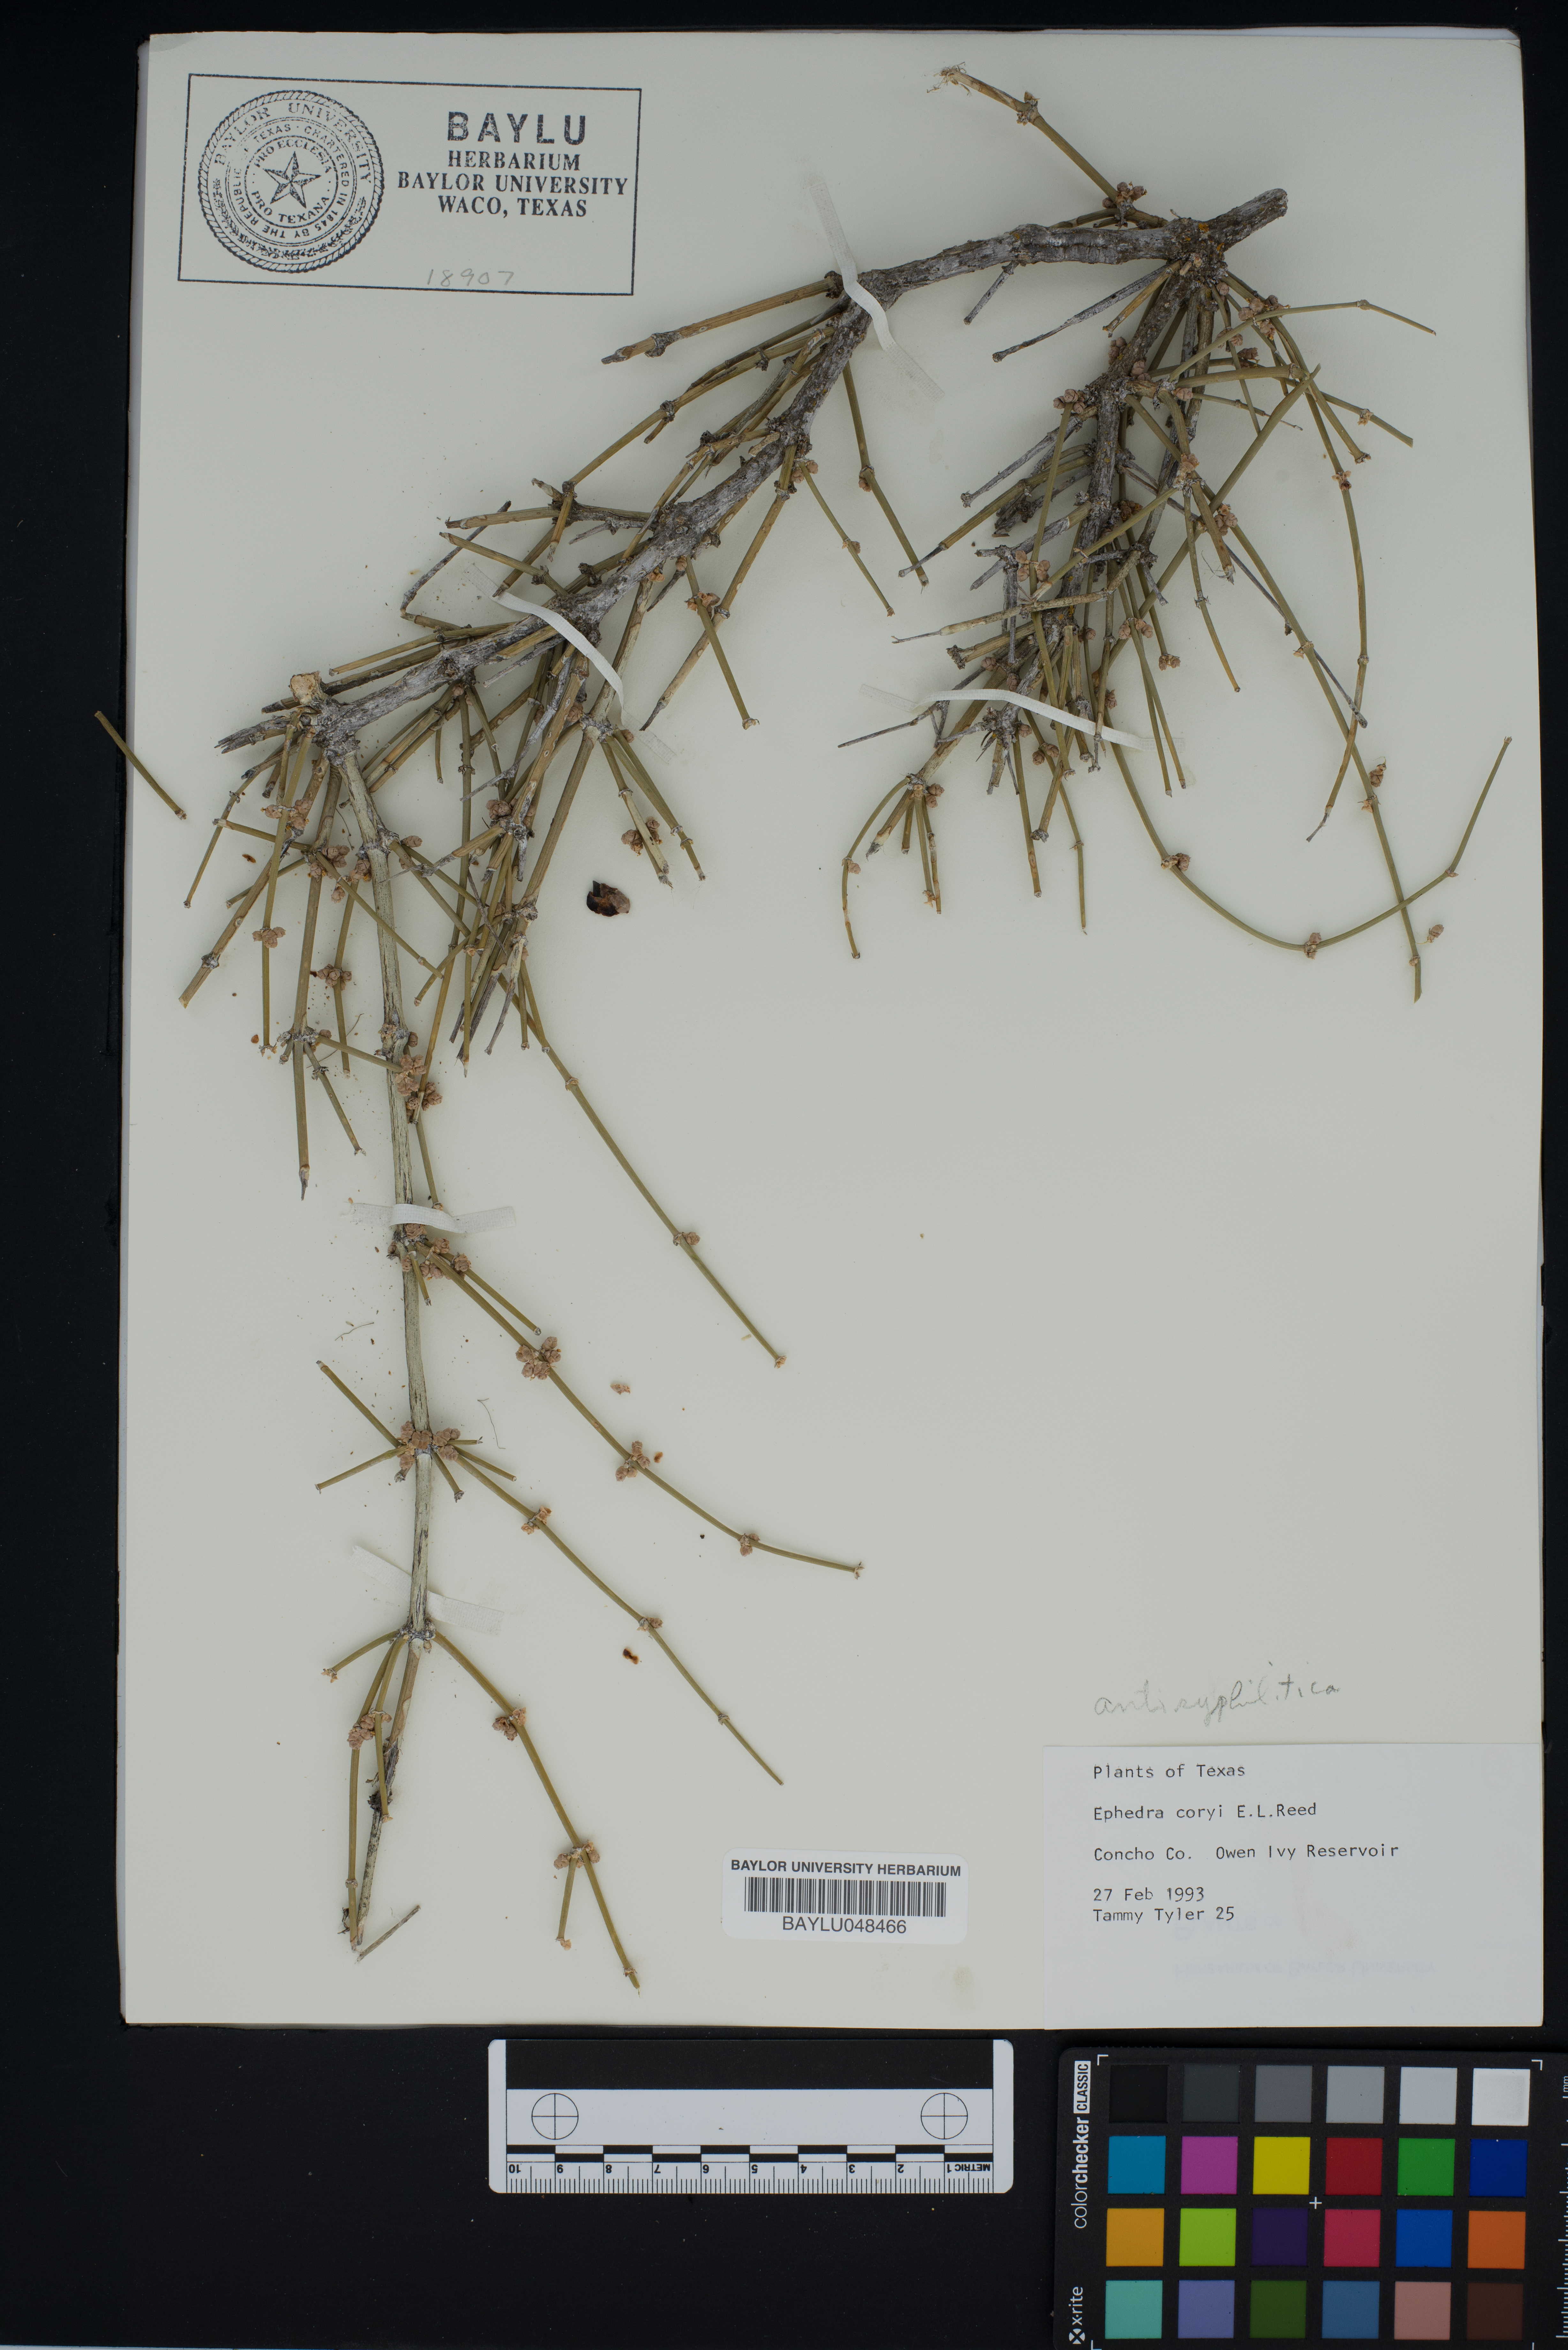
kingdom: Plantae
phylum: Tracheophyta
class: Gnetopsida
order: Ephedrales
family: Ephedraceae
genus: Ephedra
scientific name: Ephedra antisyphilitica
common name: Clipweed
